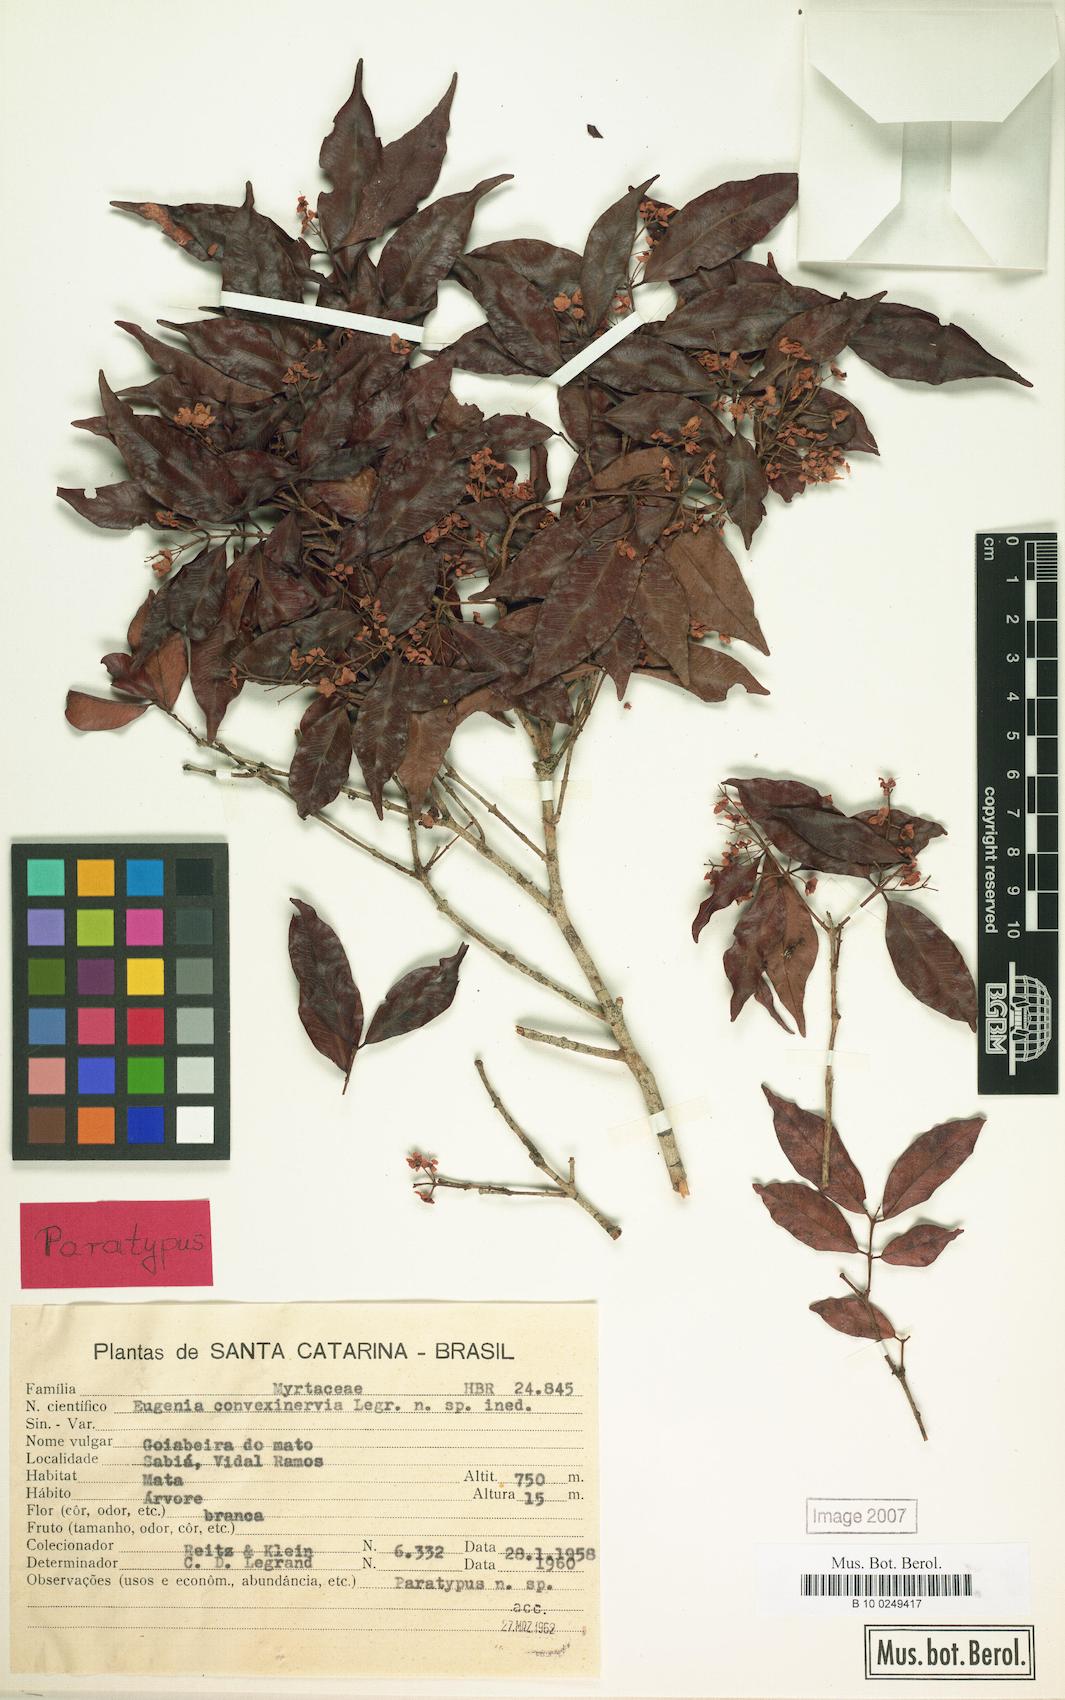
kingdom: Plantae
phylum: Tracheophyta
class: Magnoliopsida
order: Myrtales
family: Myrtaceae
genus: Eugenia
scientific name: Eugenia convexinervia
